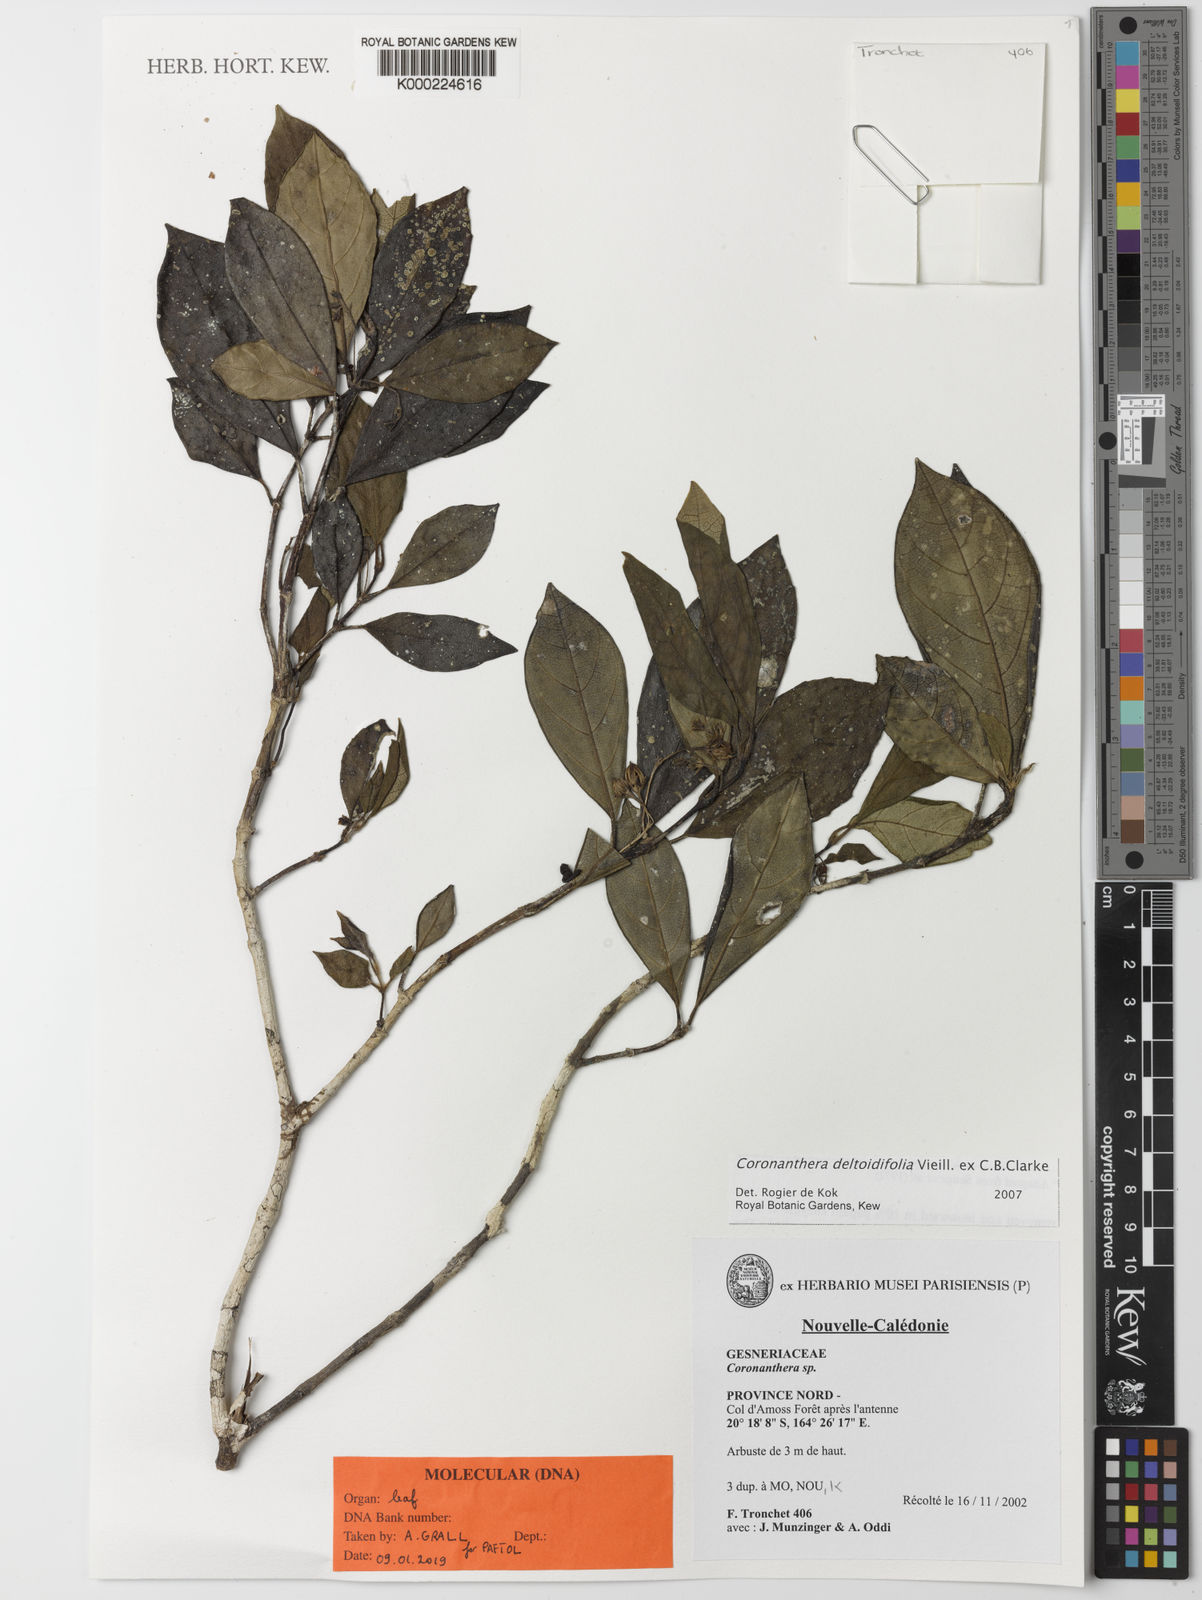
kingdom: Plantae
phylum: Tracheophyta
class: Magnoliopsida
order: Lamiales
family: Gesneriaceae
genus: Coronanthera
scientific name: Coronanthera deltoidifolia
